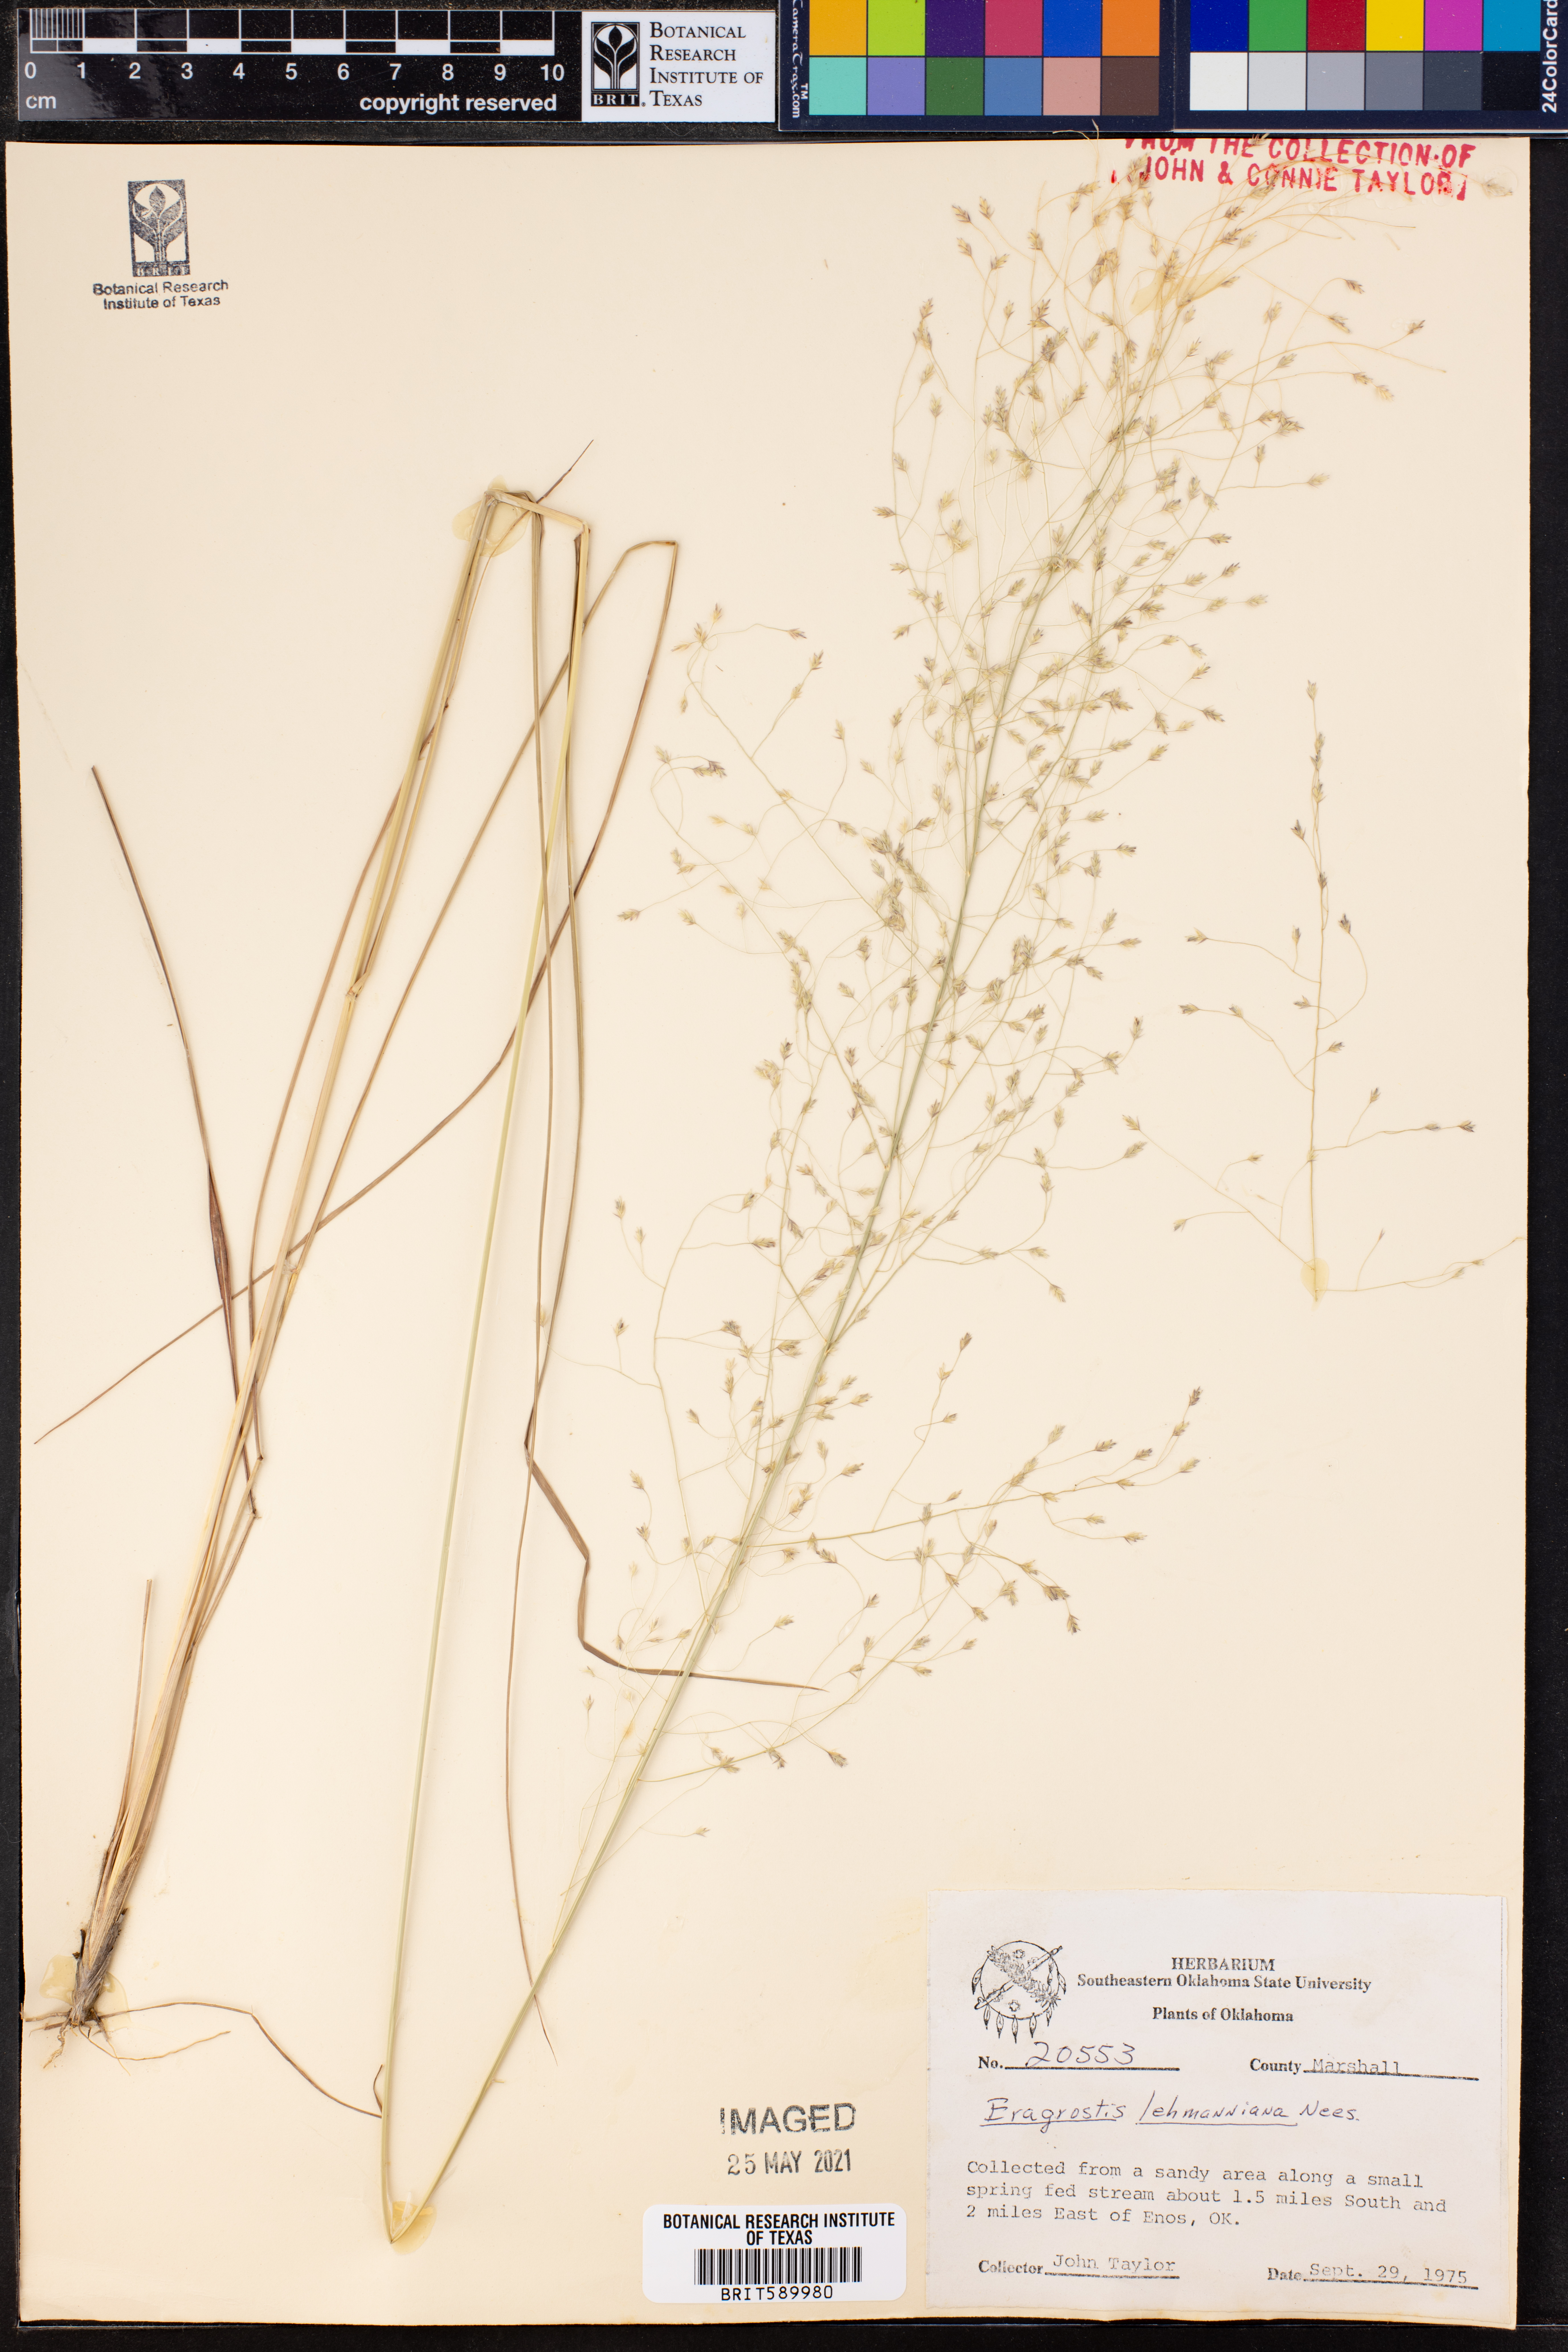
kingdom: Plantae
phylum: Tracheophyta
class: Liliopsida
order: Poales
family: Poaceae
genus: Eragrostis
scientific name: Eragrostis lehmanniana
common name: Lehmann lovegrass
